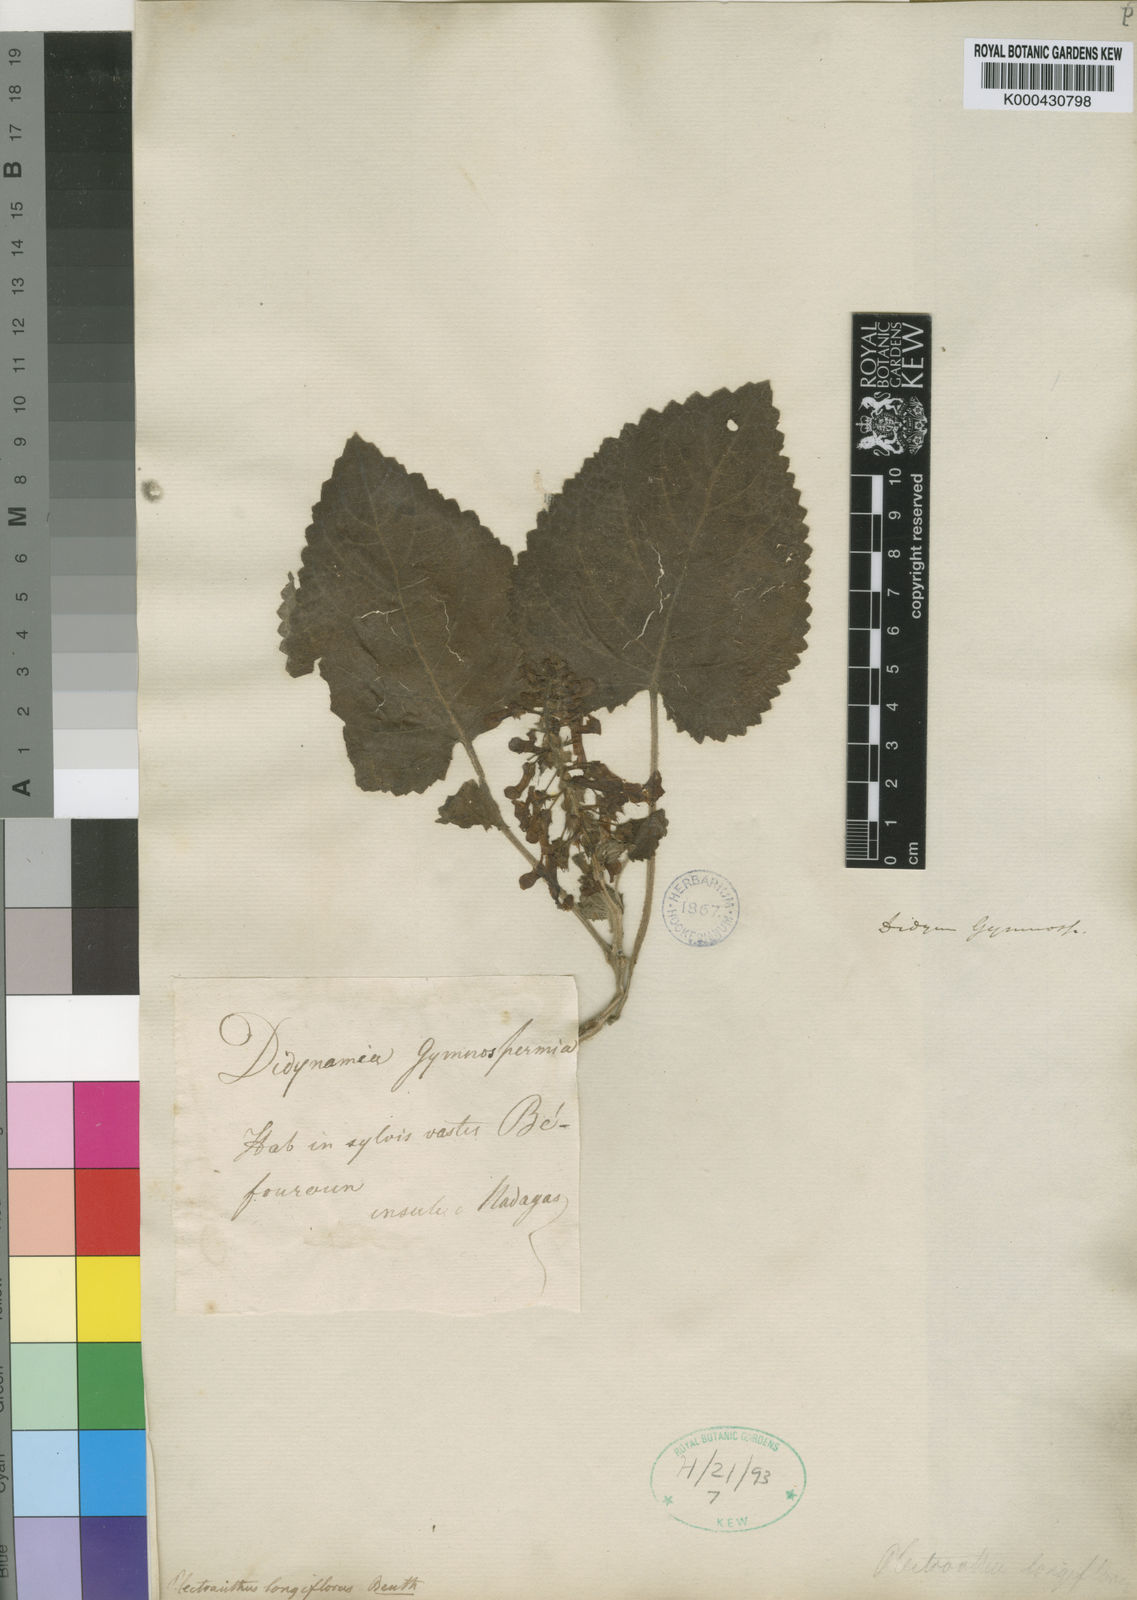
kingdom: Plantae
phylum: Tracheophyta
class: Magnoliopsida
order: Lamiales
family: Lamiaceae
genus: Plectranthus
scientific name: Plectranthus longiflorus
